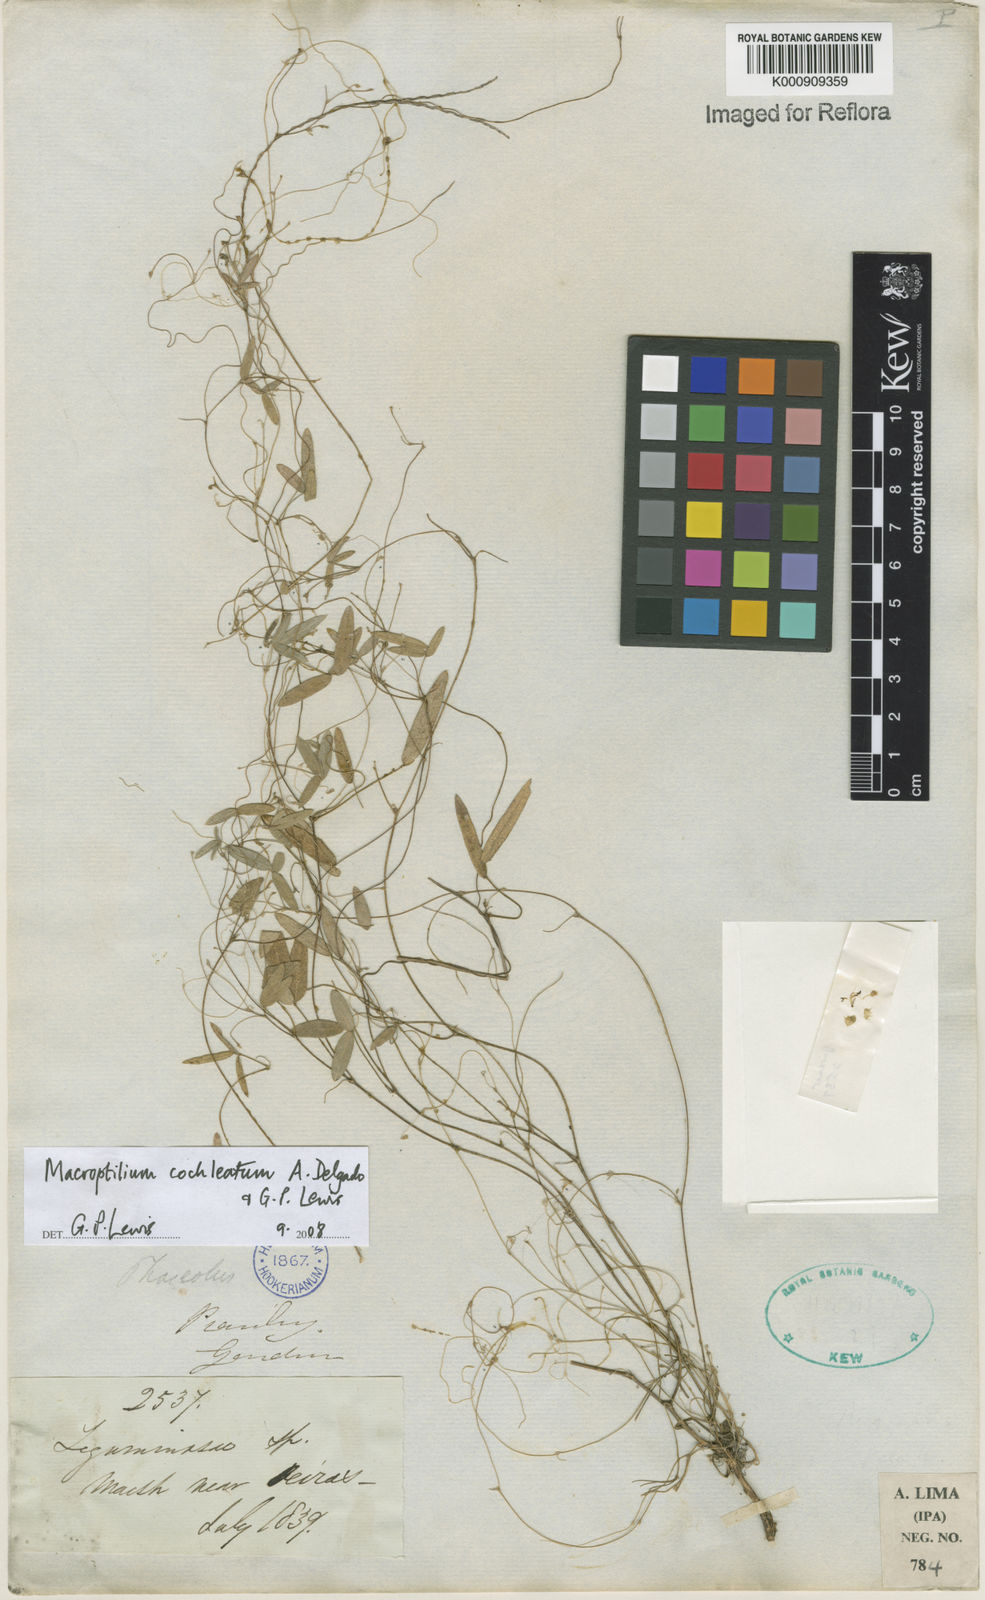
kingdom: Plantae
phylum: Tracheophyta
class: Magnoliopsida
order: Fabales
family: Fabaceae
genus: Macroptilium
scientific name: Macroptilium cochleatum
